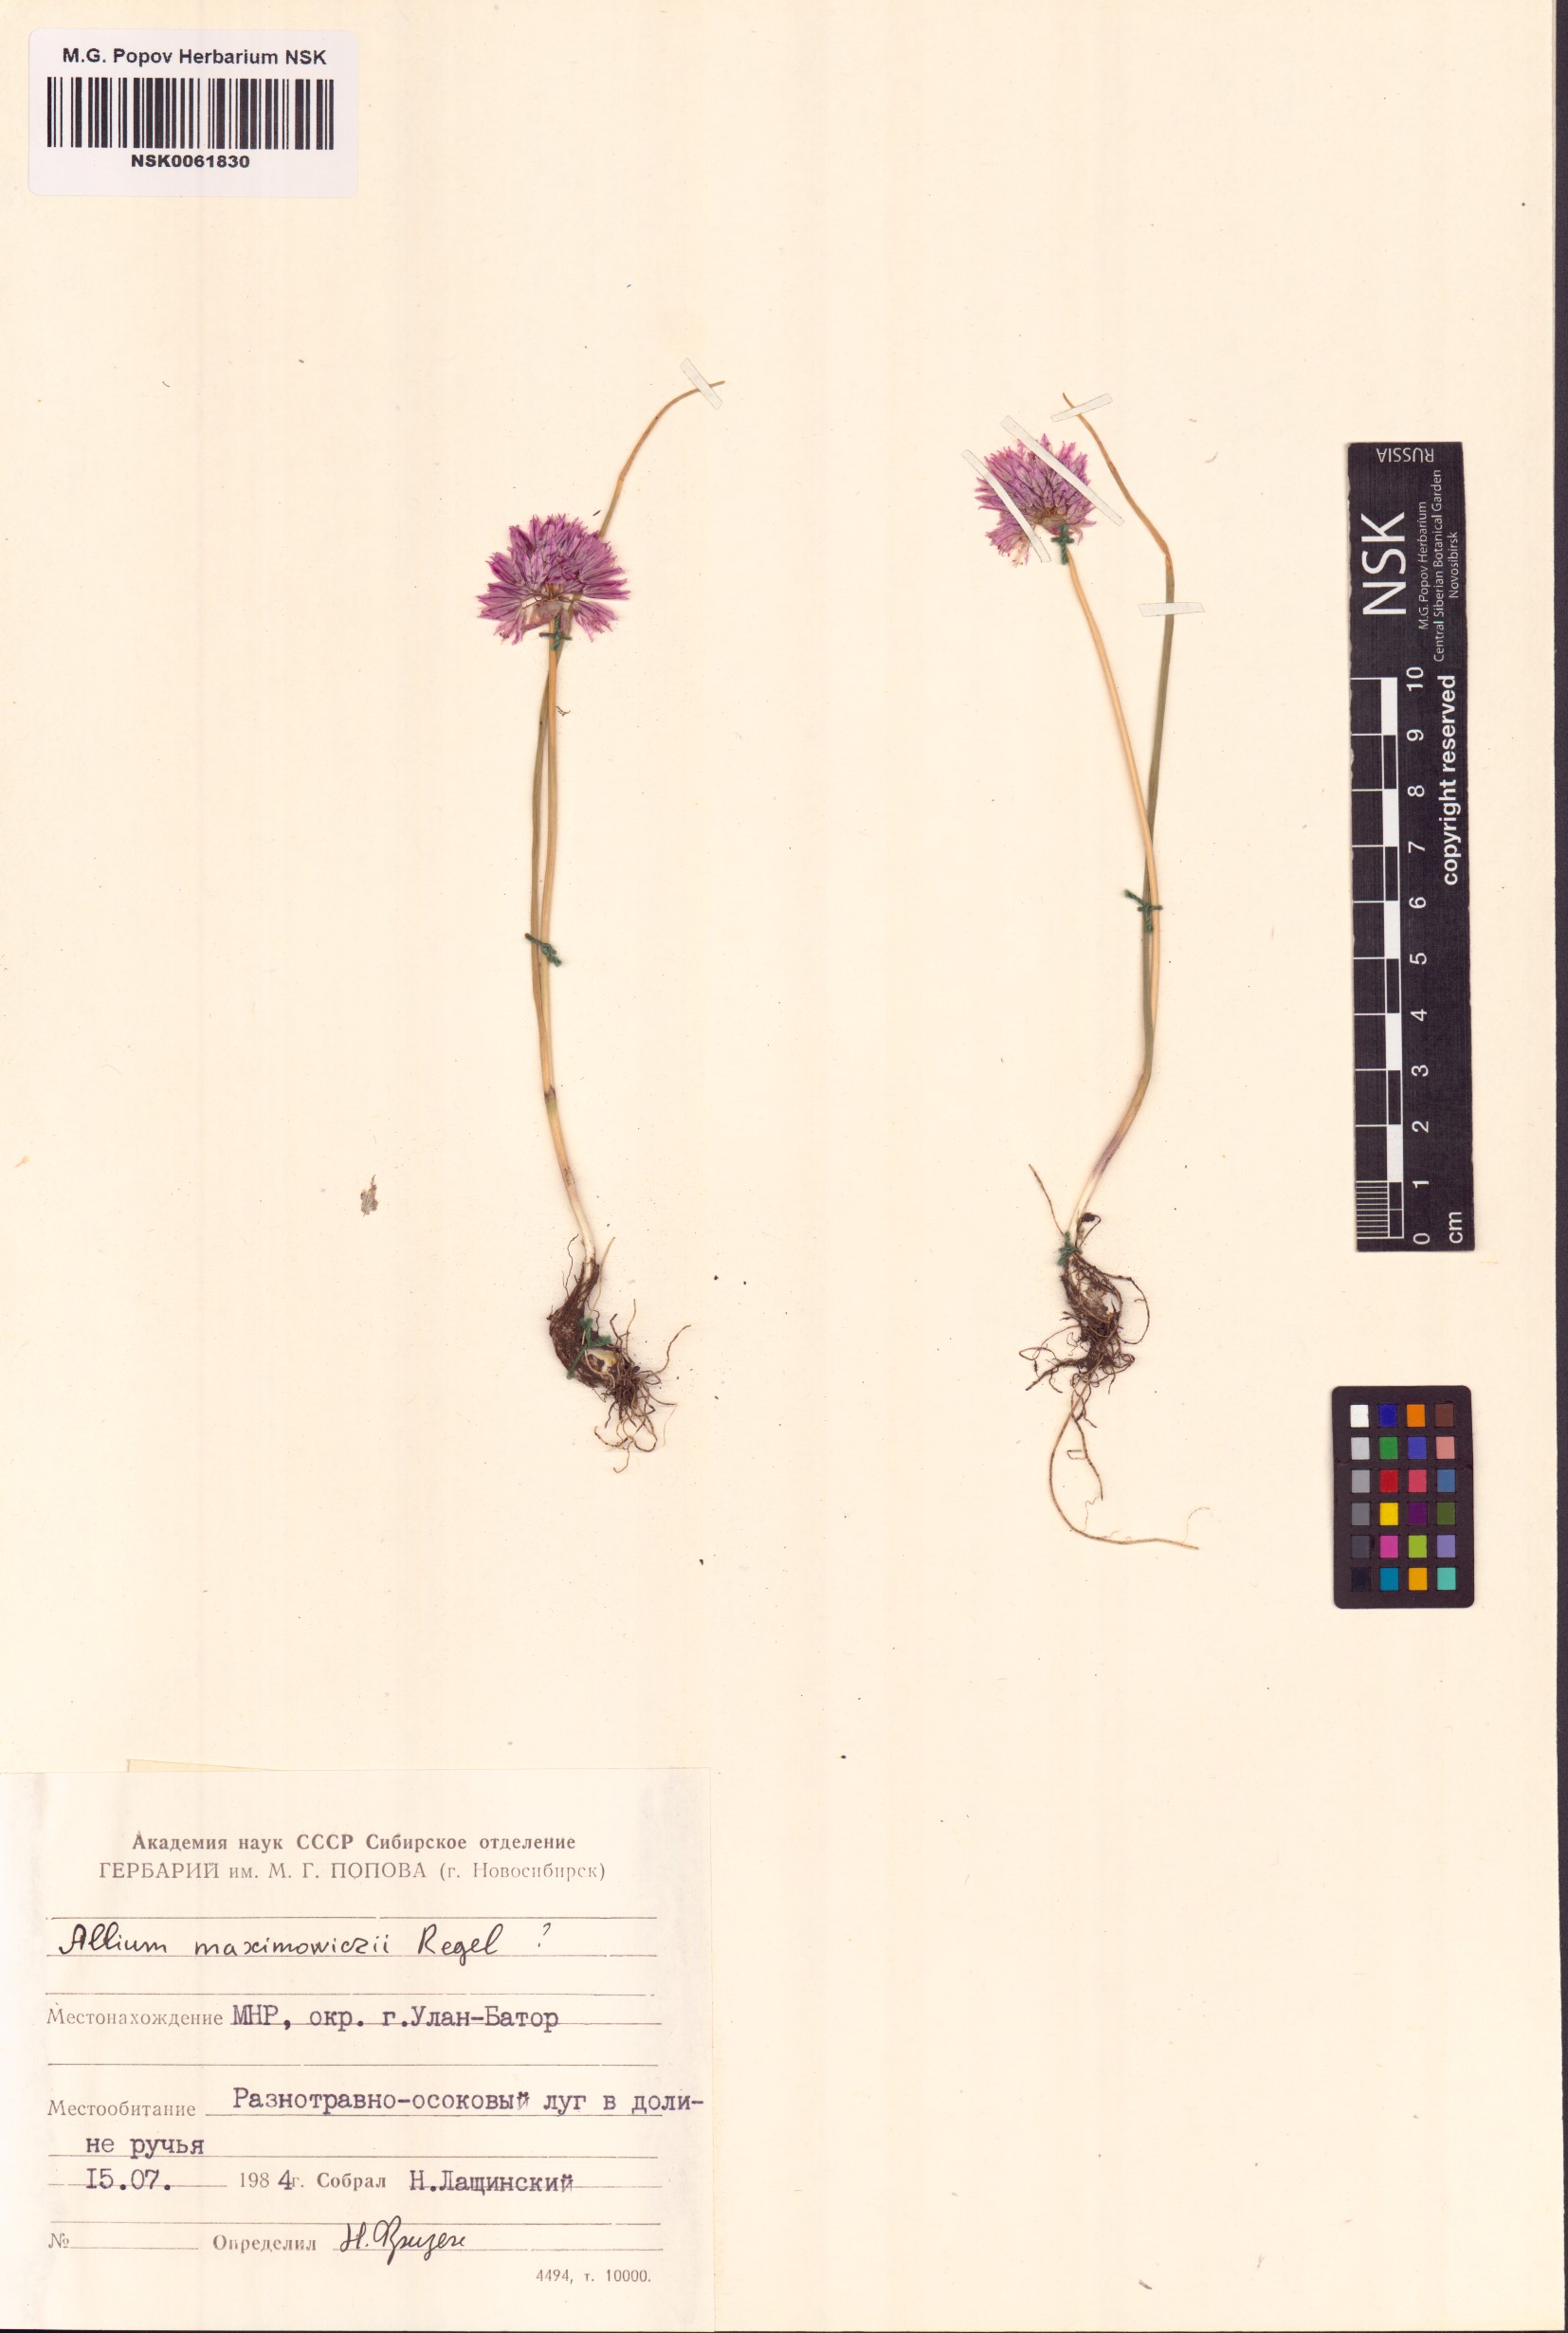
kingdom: Plantae
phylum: Tracheophyta
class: Liliopsida
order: Asparagales
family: Amaryllidaceae
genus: Allium
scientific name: Allium maximowiczii
